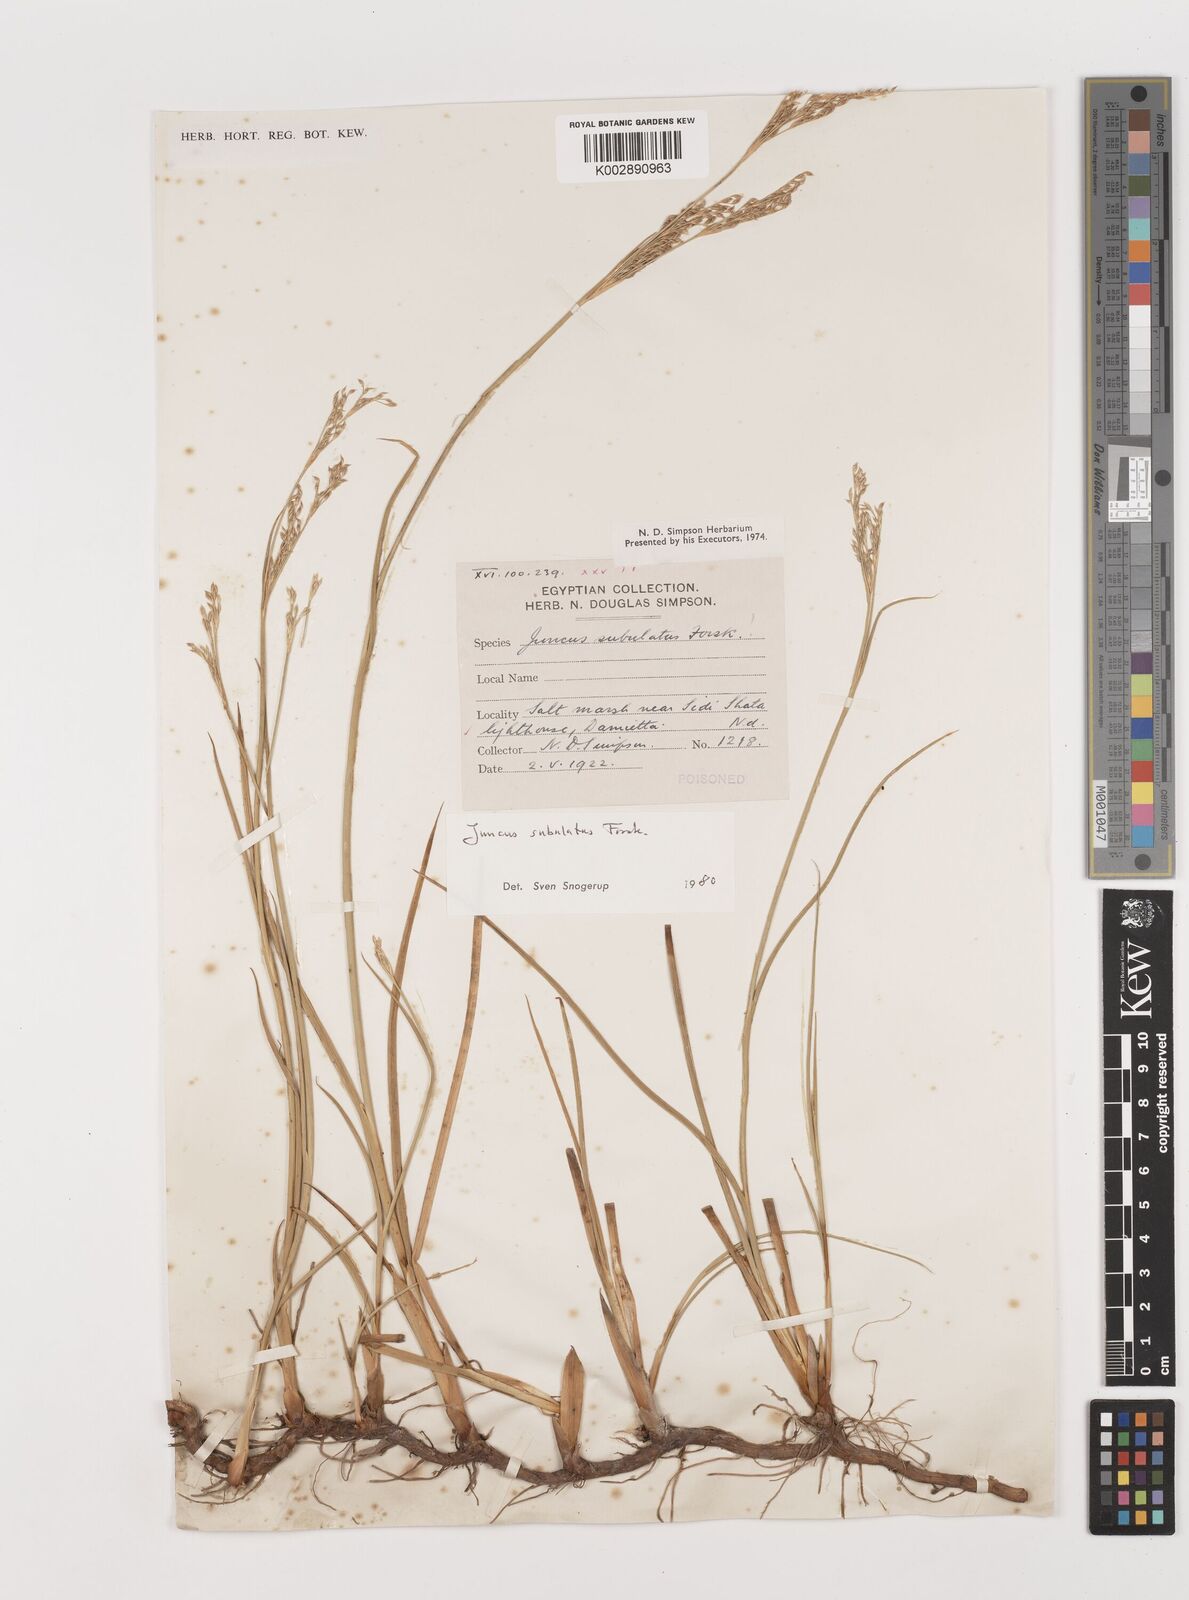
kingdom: Plantae
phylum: Tracheophyta
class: Liliopsida
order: Poales
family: Juncaceae
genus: Juncus
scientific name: Juncus subulatus
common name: Somerset rush
